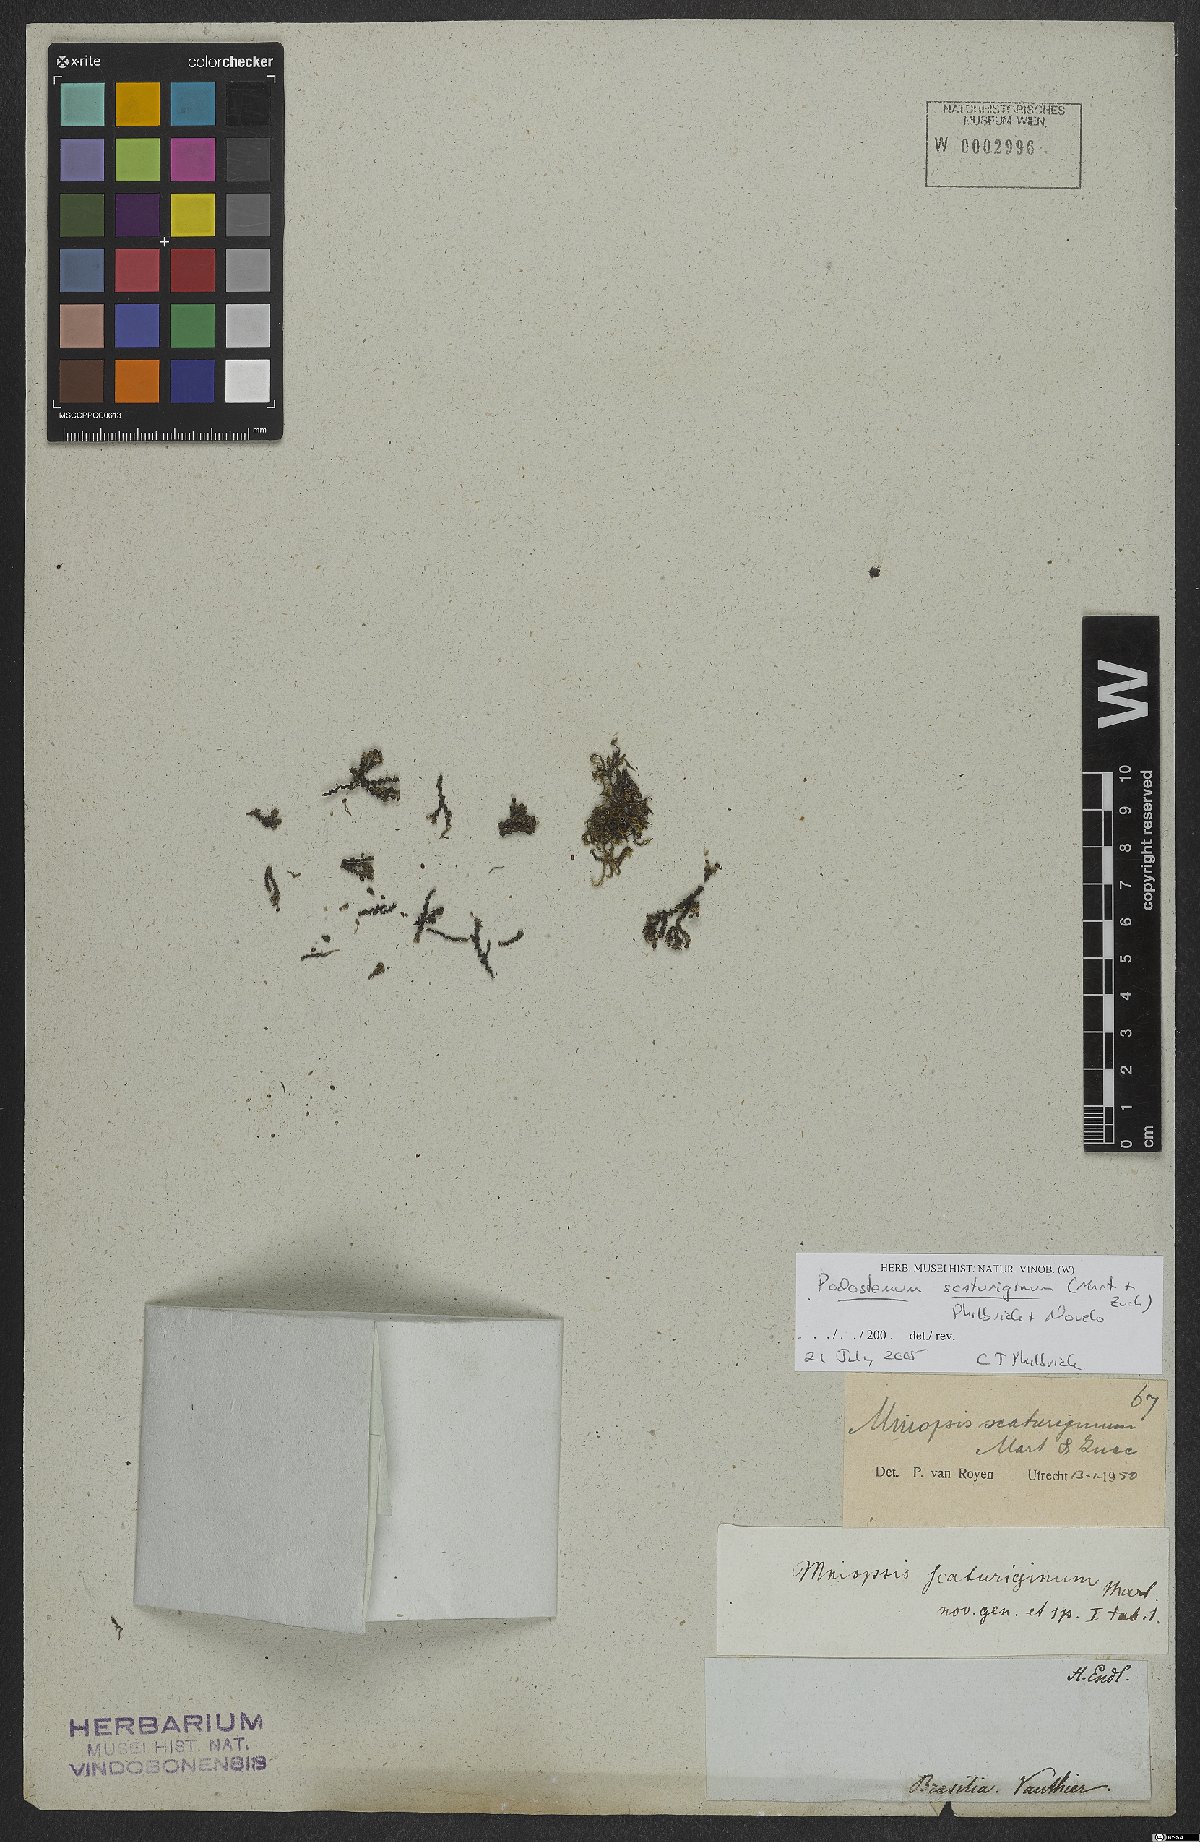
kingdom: Plantae
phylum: Tracheophyta
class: Magnoliopsida
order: Malpighiales
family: Podostemaceae
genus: Podostemum
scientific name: Podostemum scaturiginum
